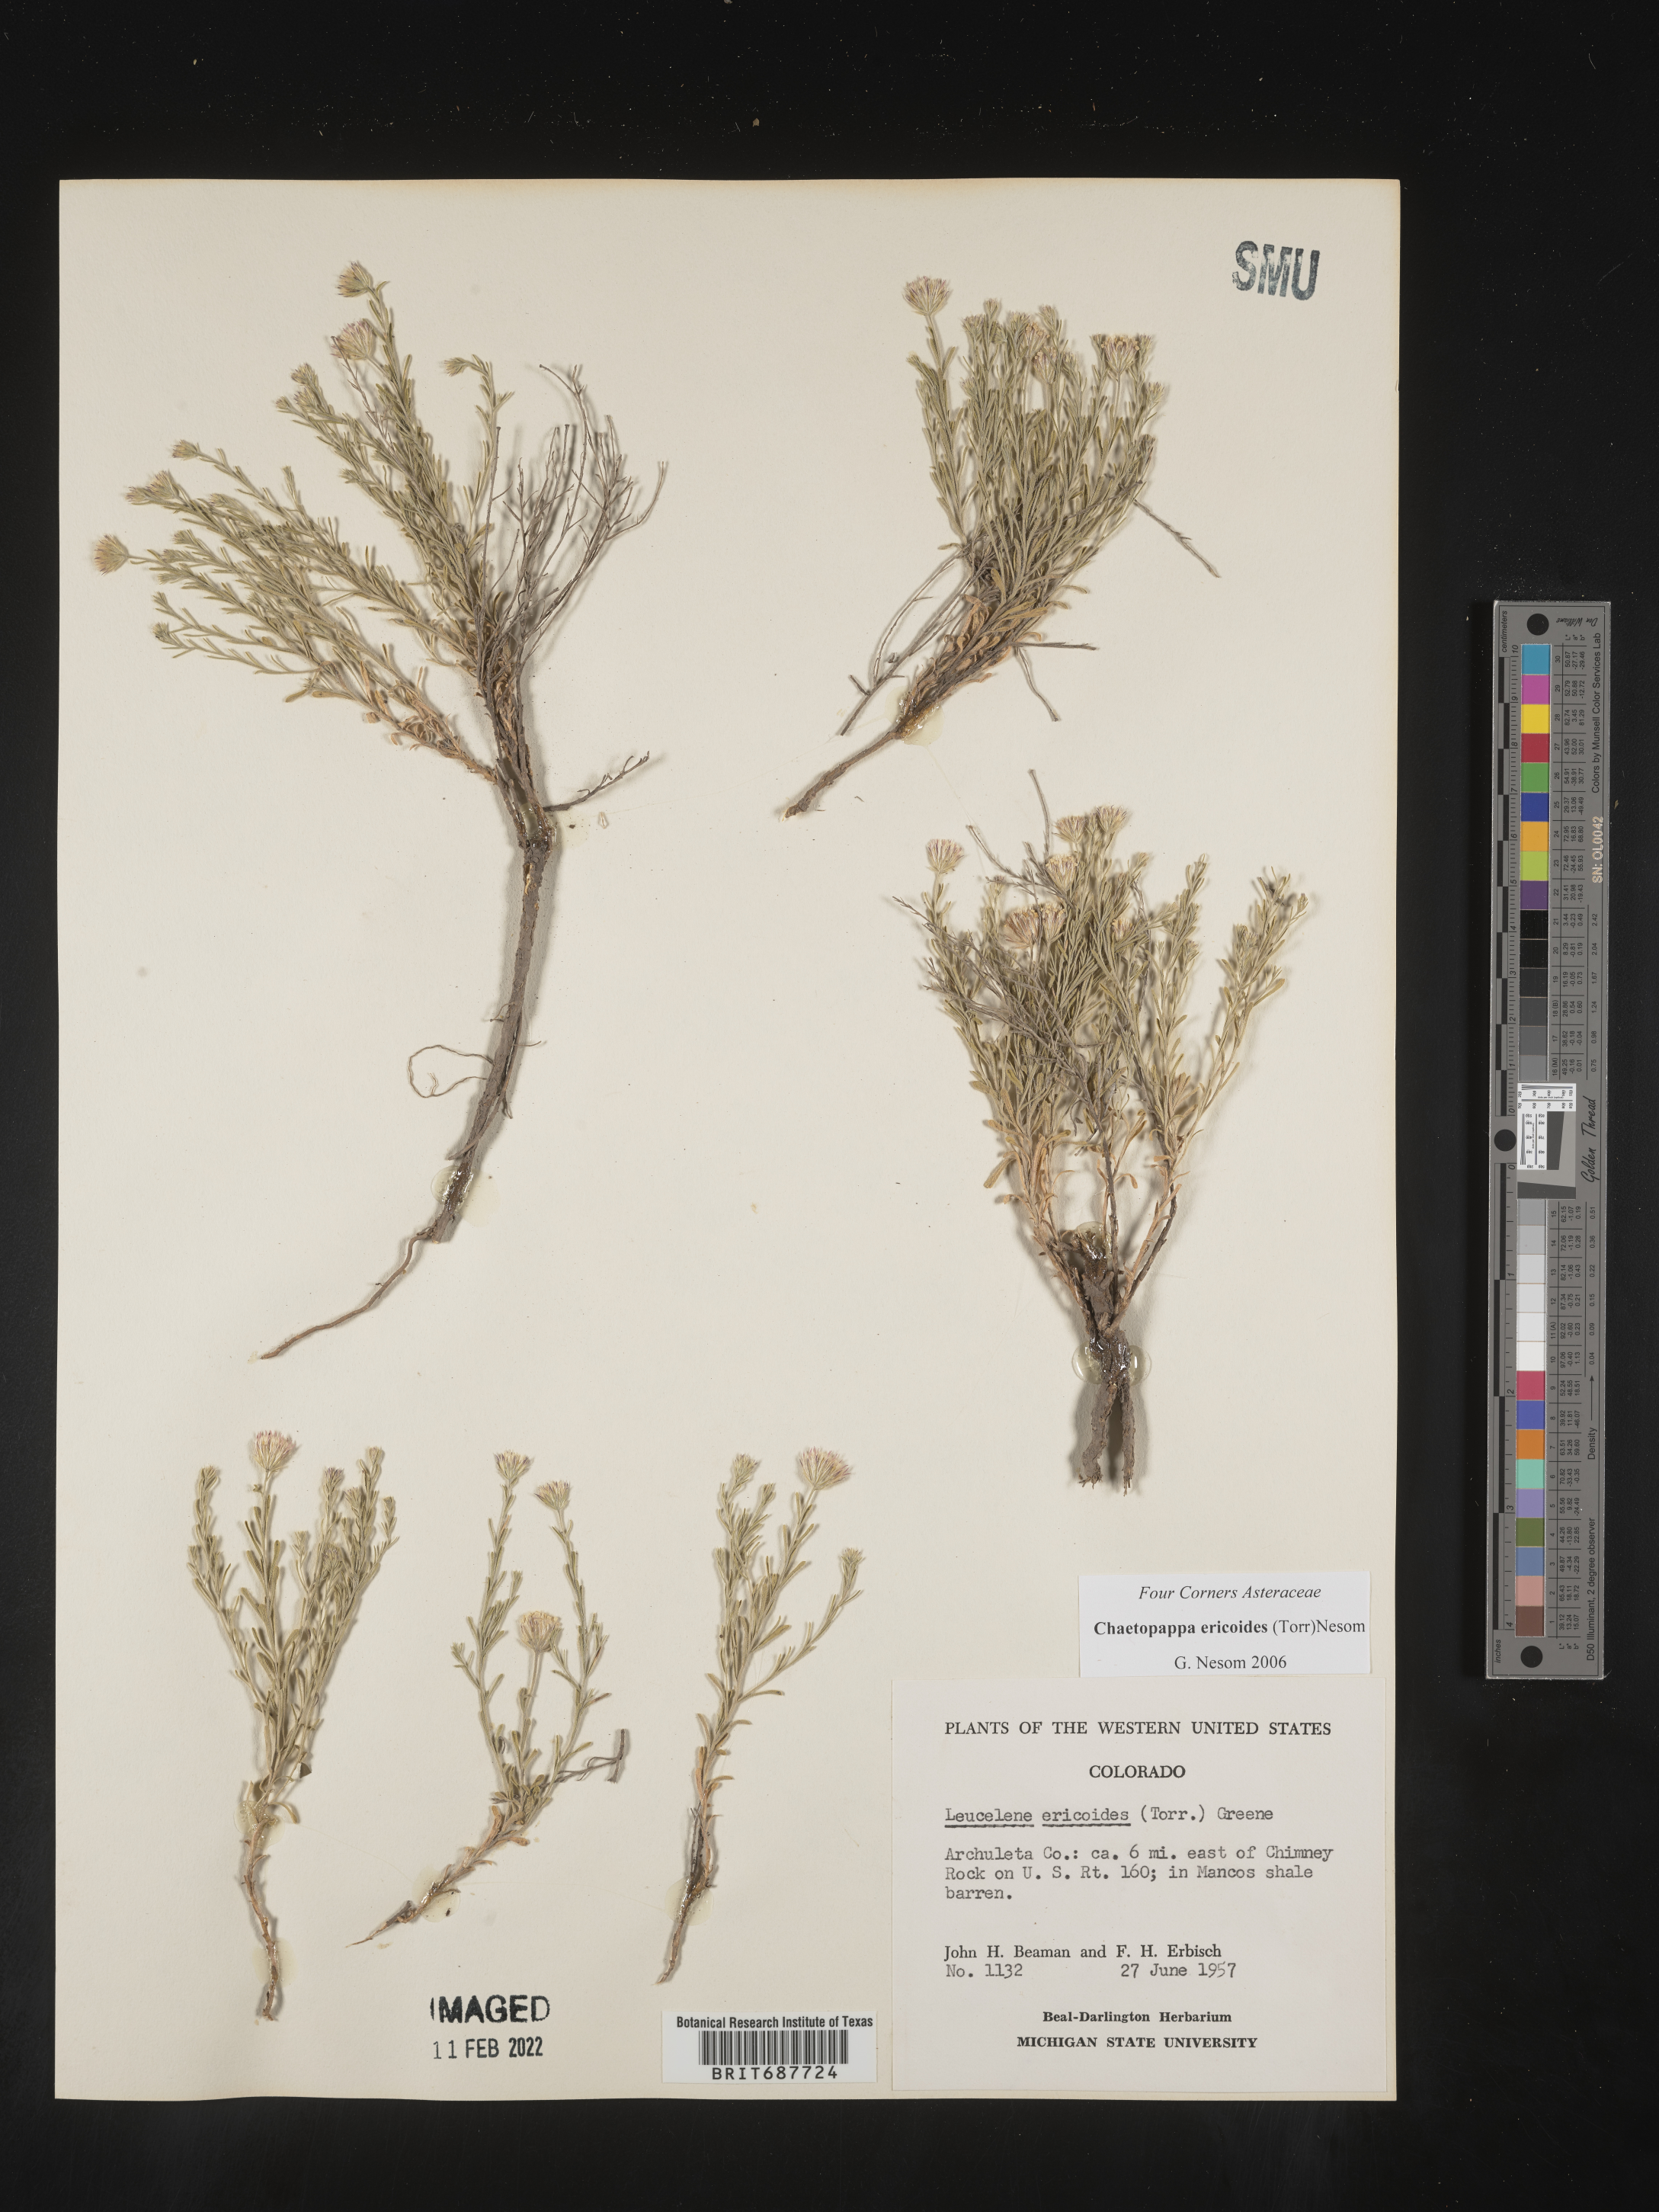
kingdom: Plantae
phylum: Tracheophyta
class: Magnoliopsida
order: Asterales
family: Asteraceae
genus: Chaetopappa
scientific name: Chaetopappa ericoides
